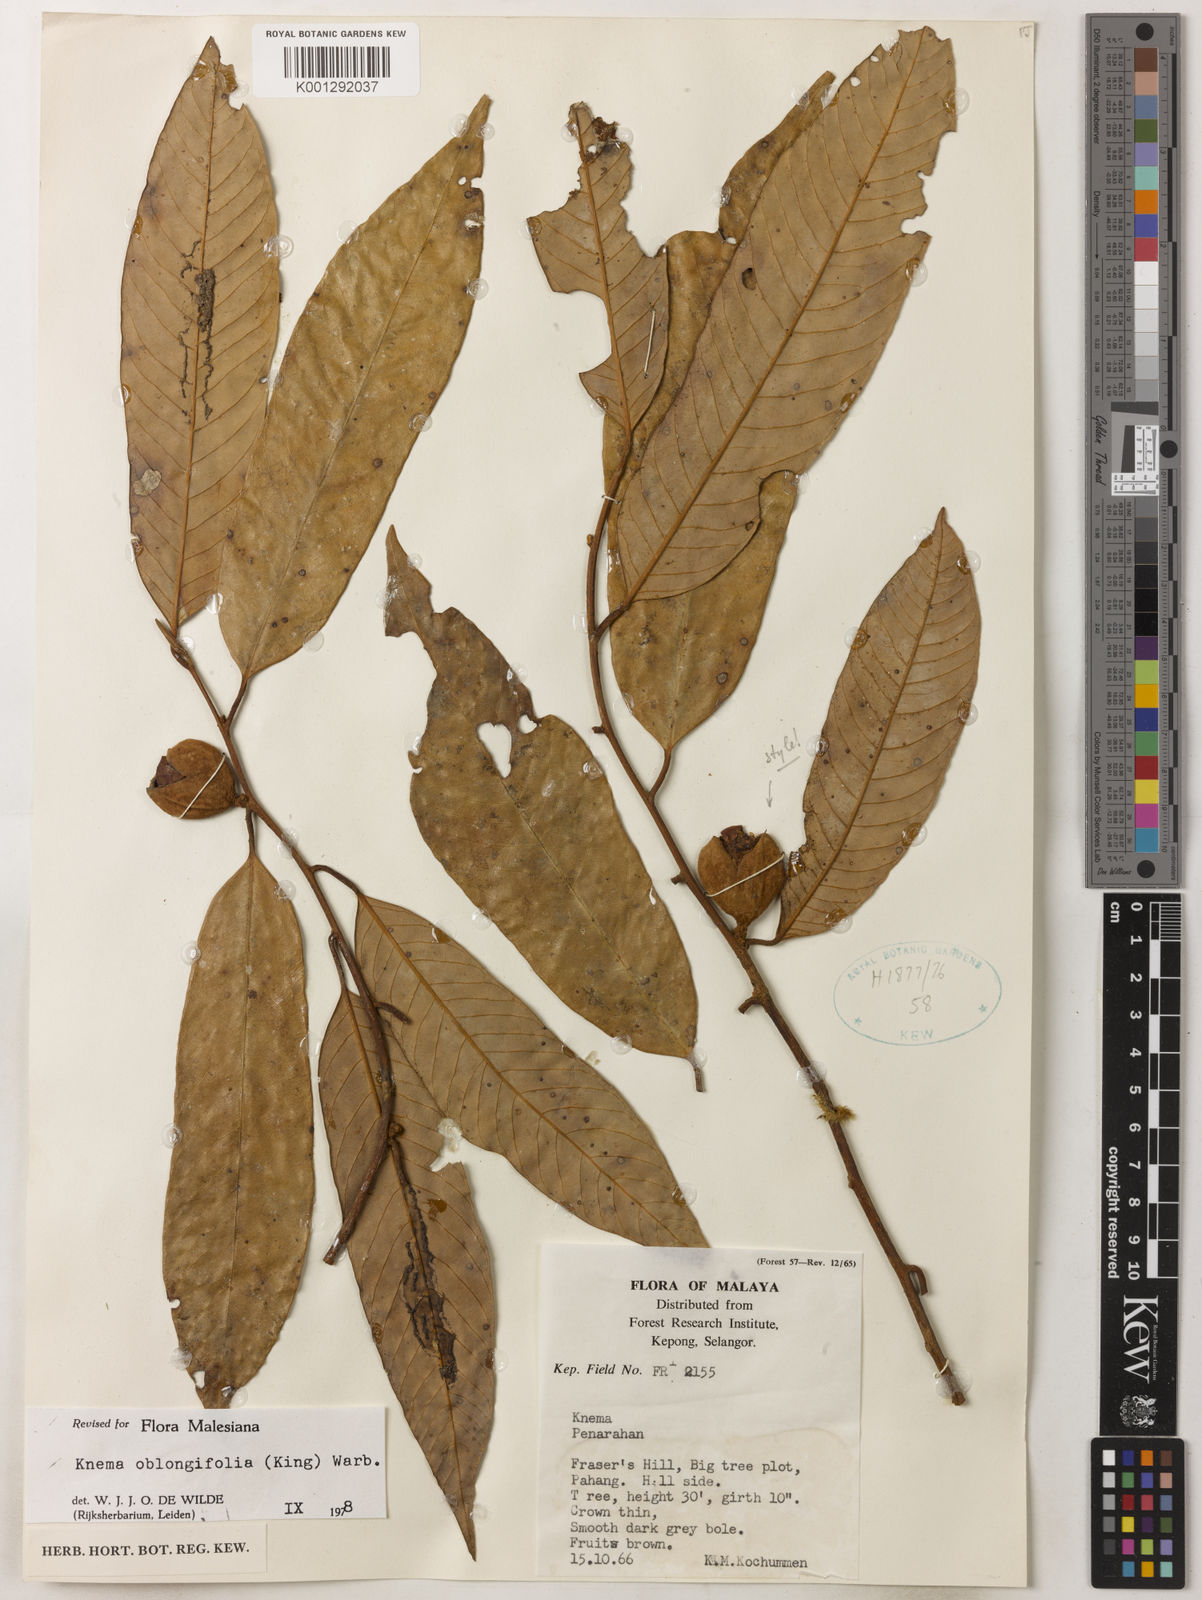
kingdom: Plantae
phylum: Tracheophyta
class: Magnoliopsida
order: Magnoliales
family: Myristicaceae
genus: Knema
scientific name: Knema oblongifolia
